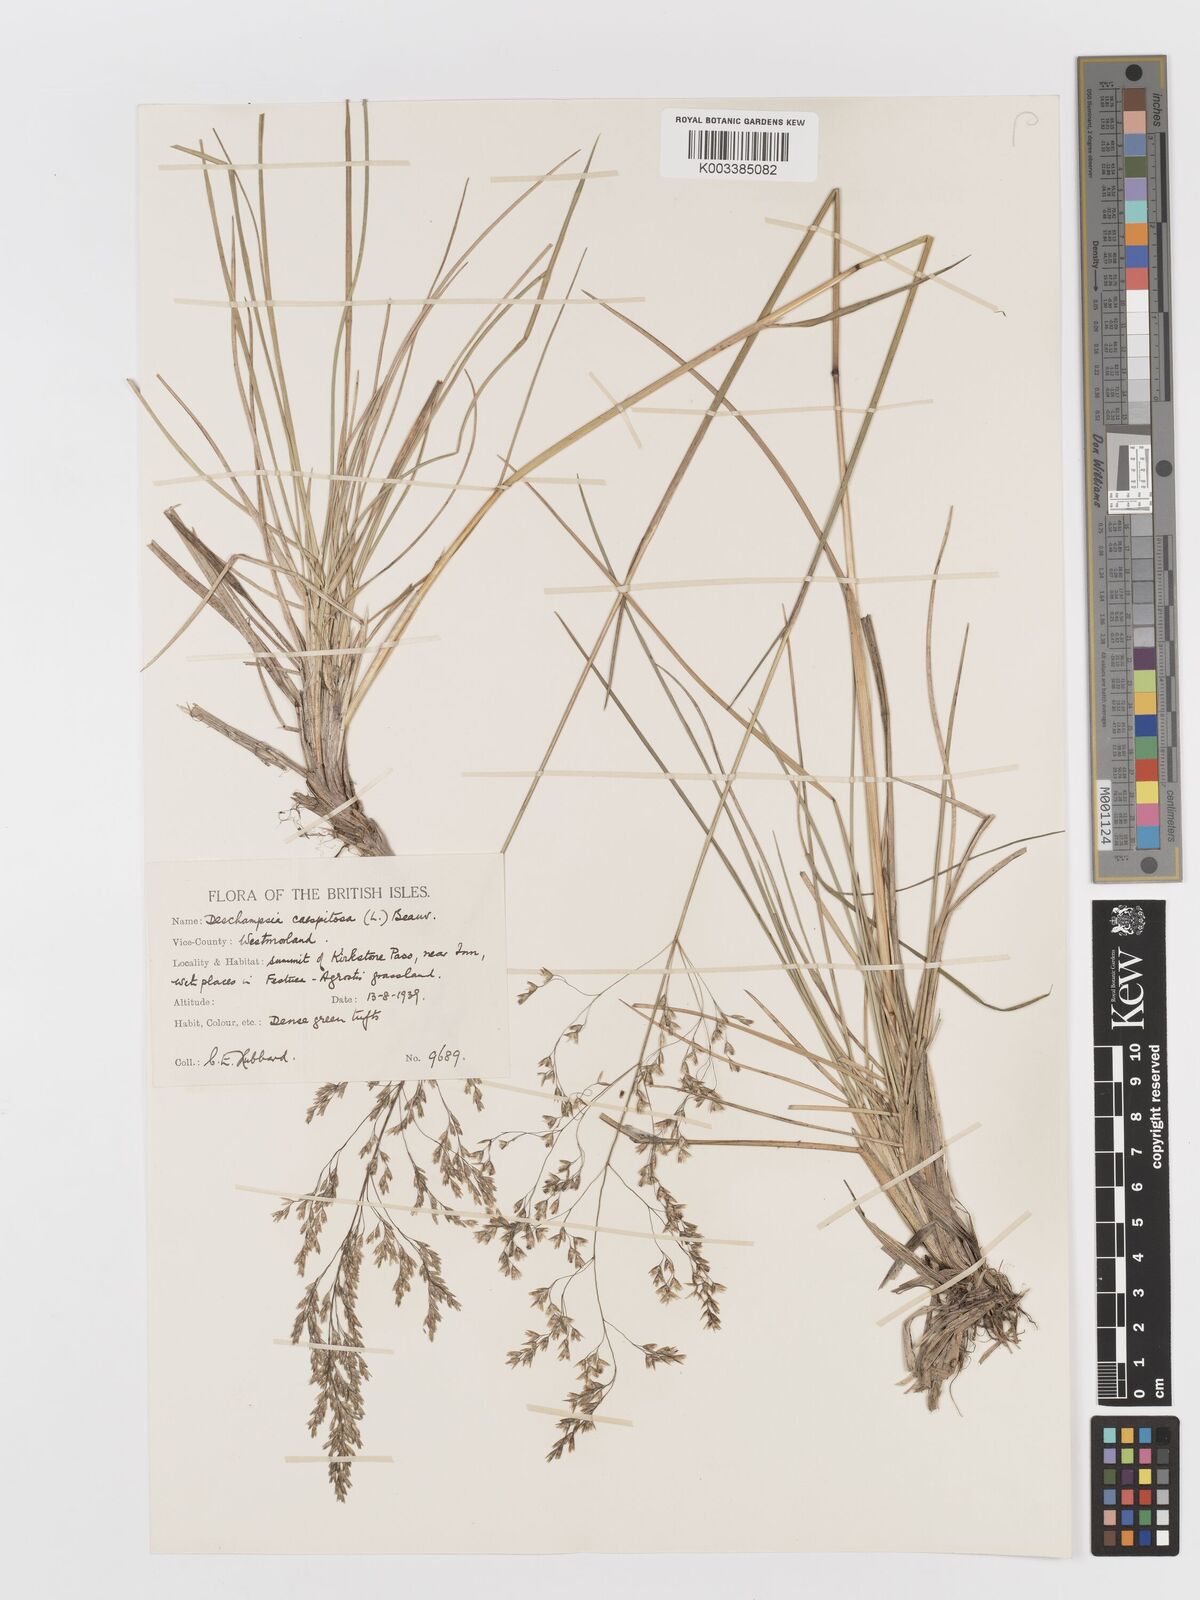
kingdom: Plantae
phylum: Tracheophyta
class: Liliopsida
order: Poales
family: Poaceae
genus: Deschampsia
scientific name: Deschampsia cespitosa
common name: Tufted hair-grass
